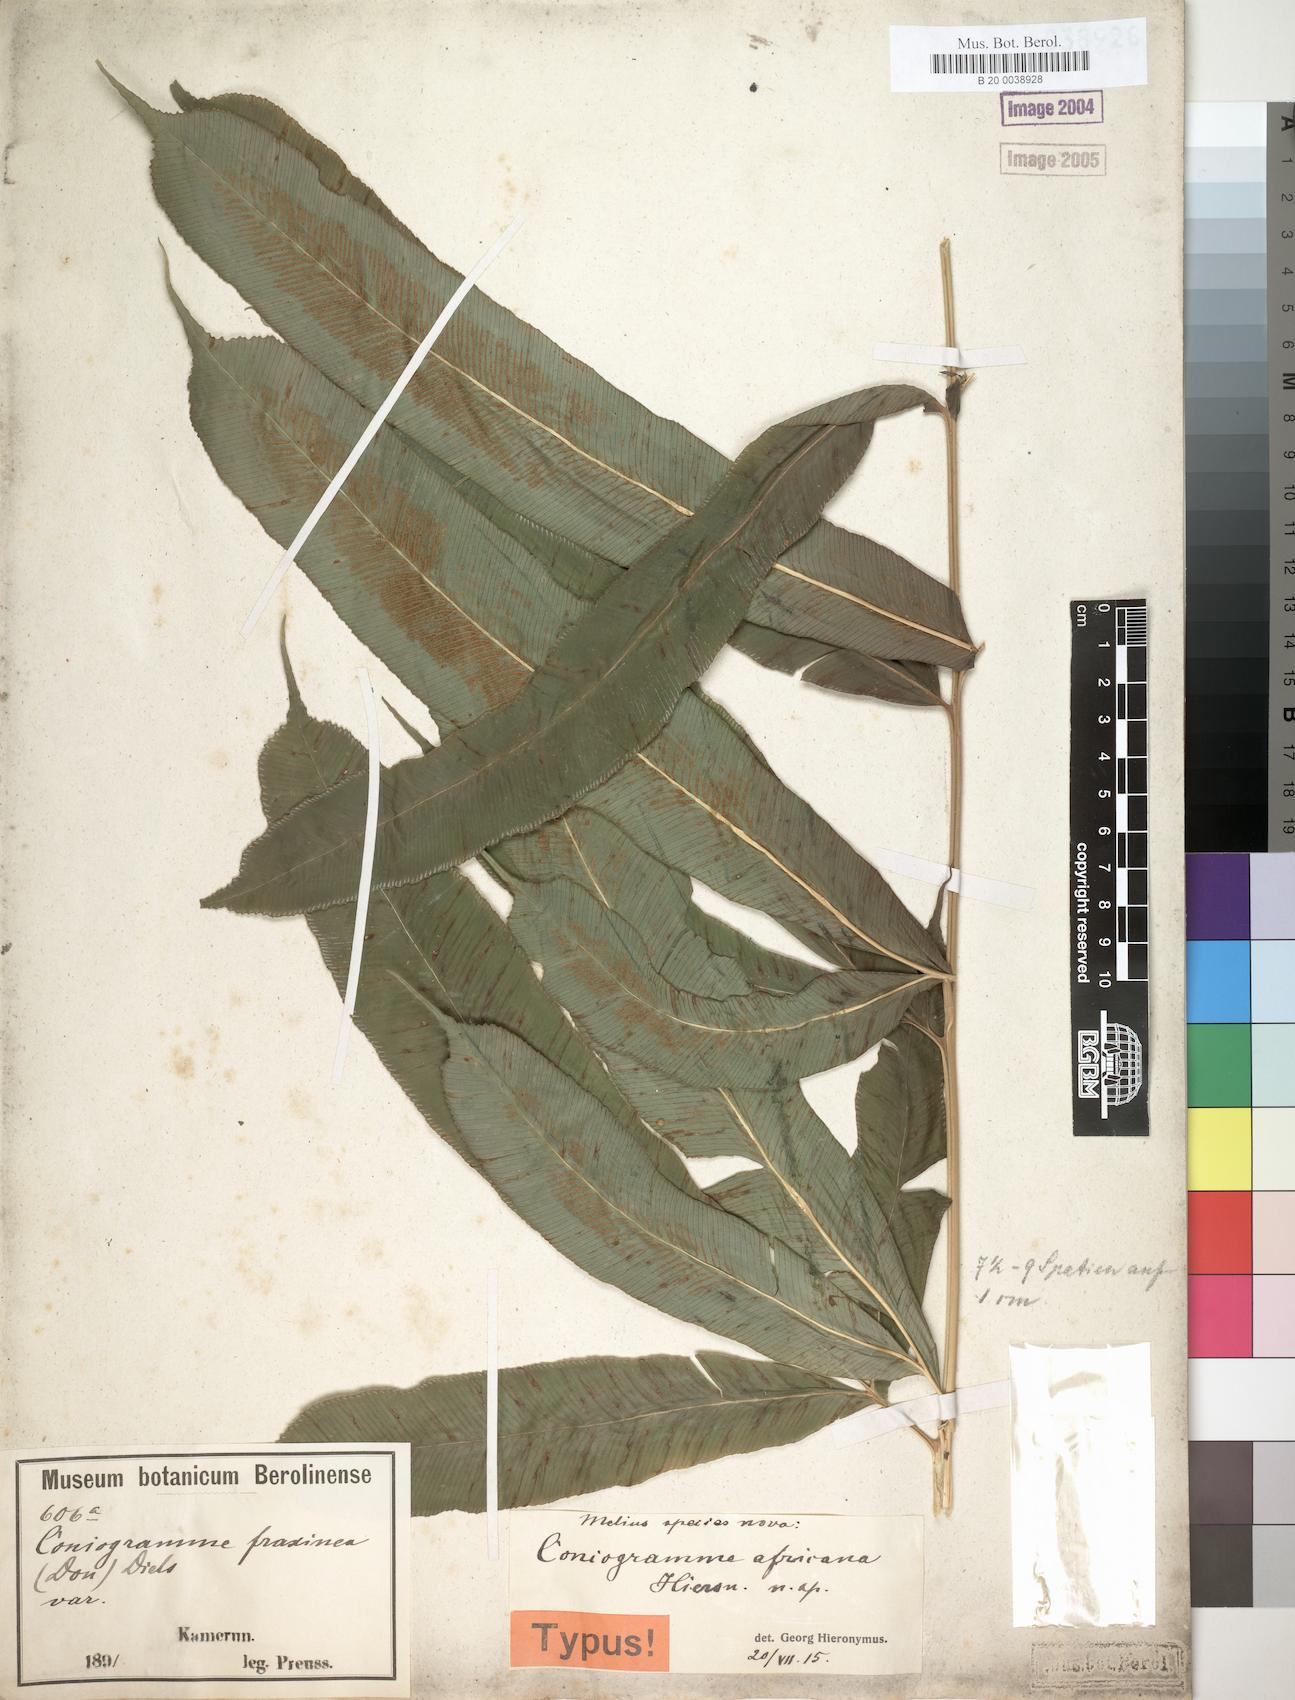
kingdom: Plantae
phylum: Tracheophyta
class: Polypodiopsida
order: Polypodiales
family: Pteridaceae
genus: Coniogramme
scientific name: Coniogramme africana
